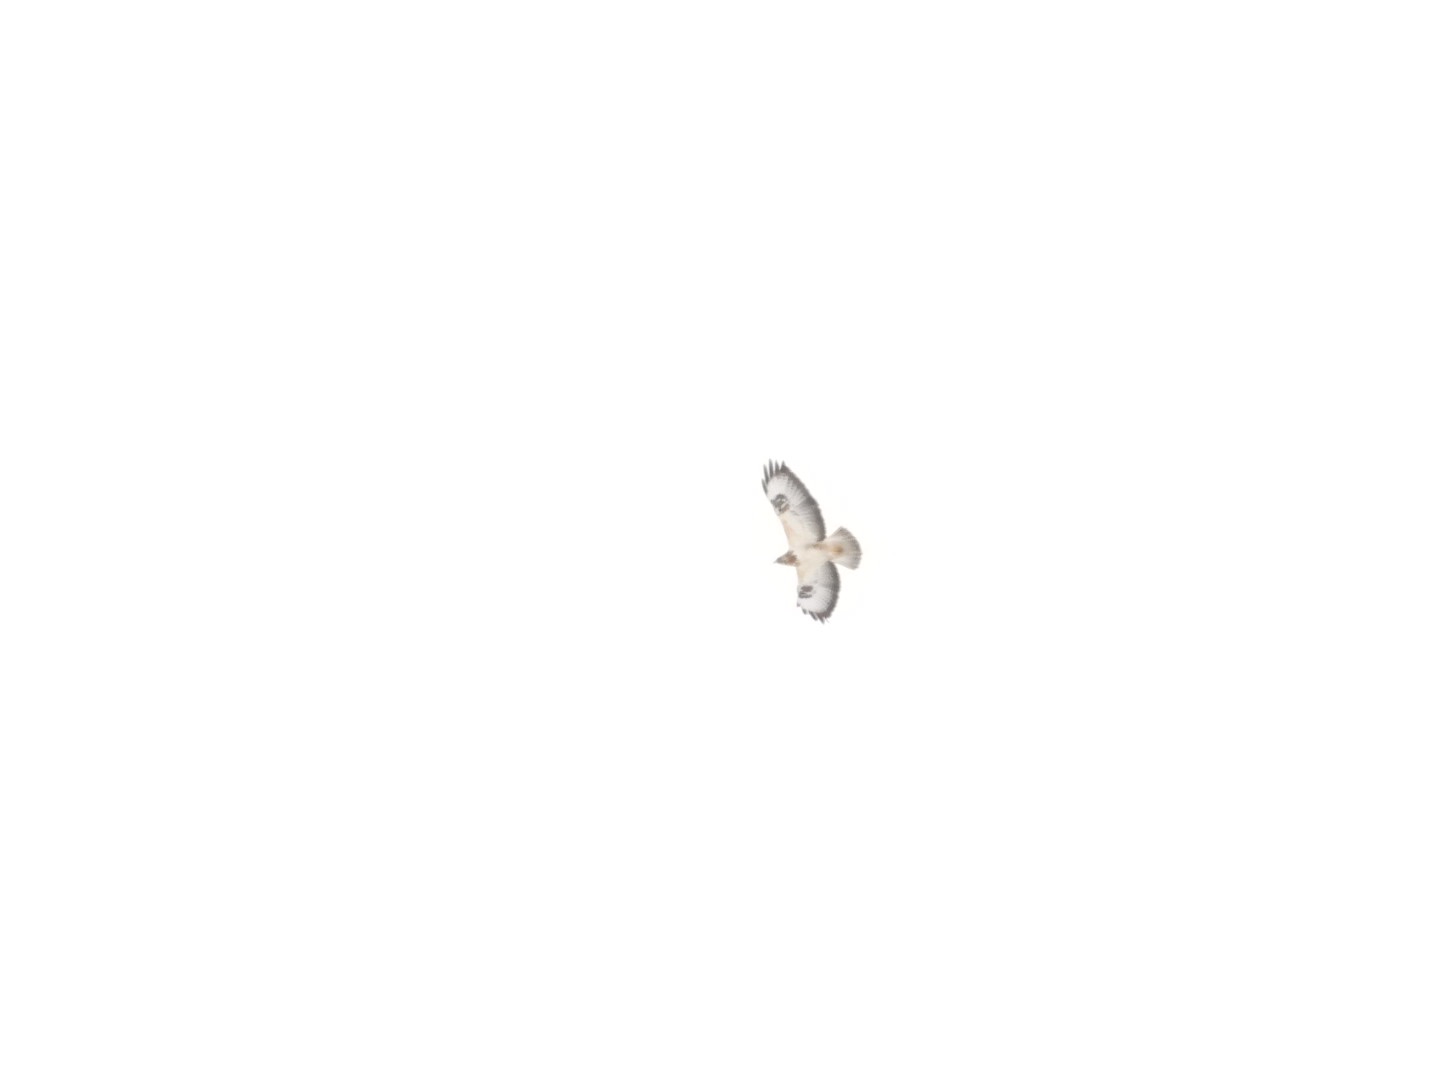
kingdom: Animalia
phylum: Chordata
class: Aves
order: Accipitriformes
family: Accipitridae
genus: Buteo
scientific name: Buteo buteo
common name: Musvåge
